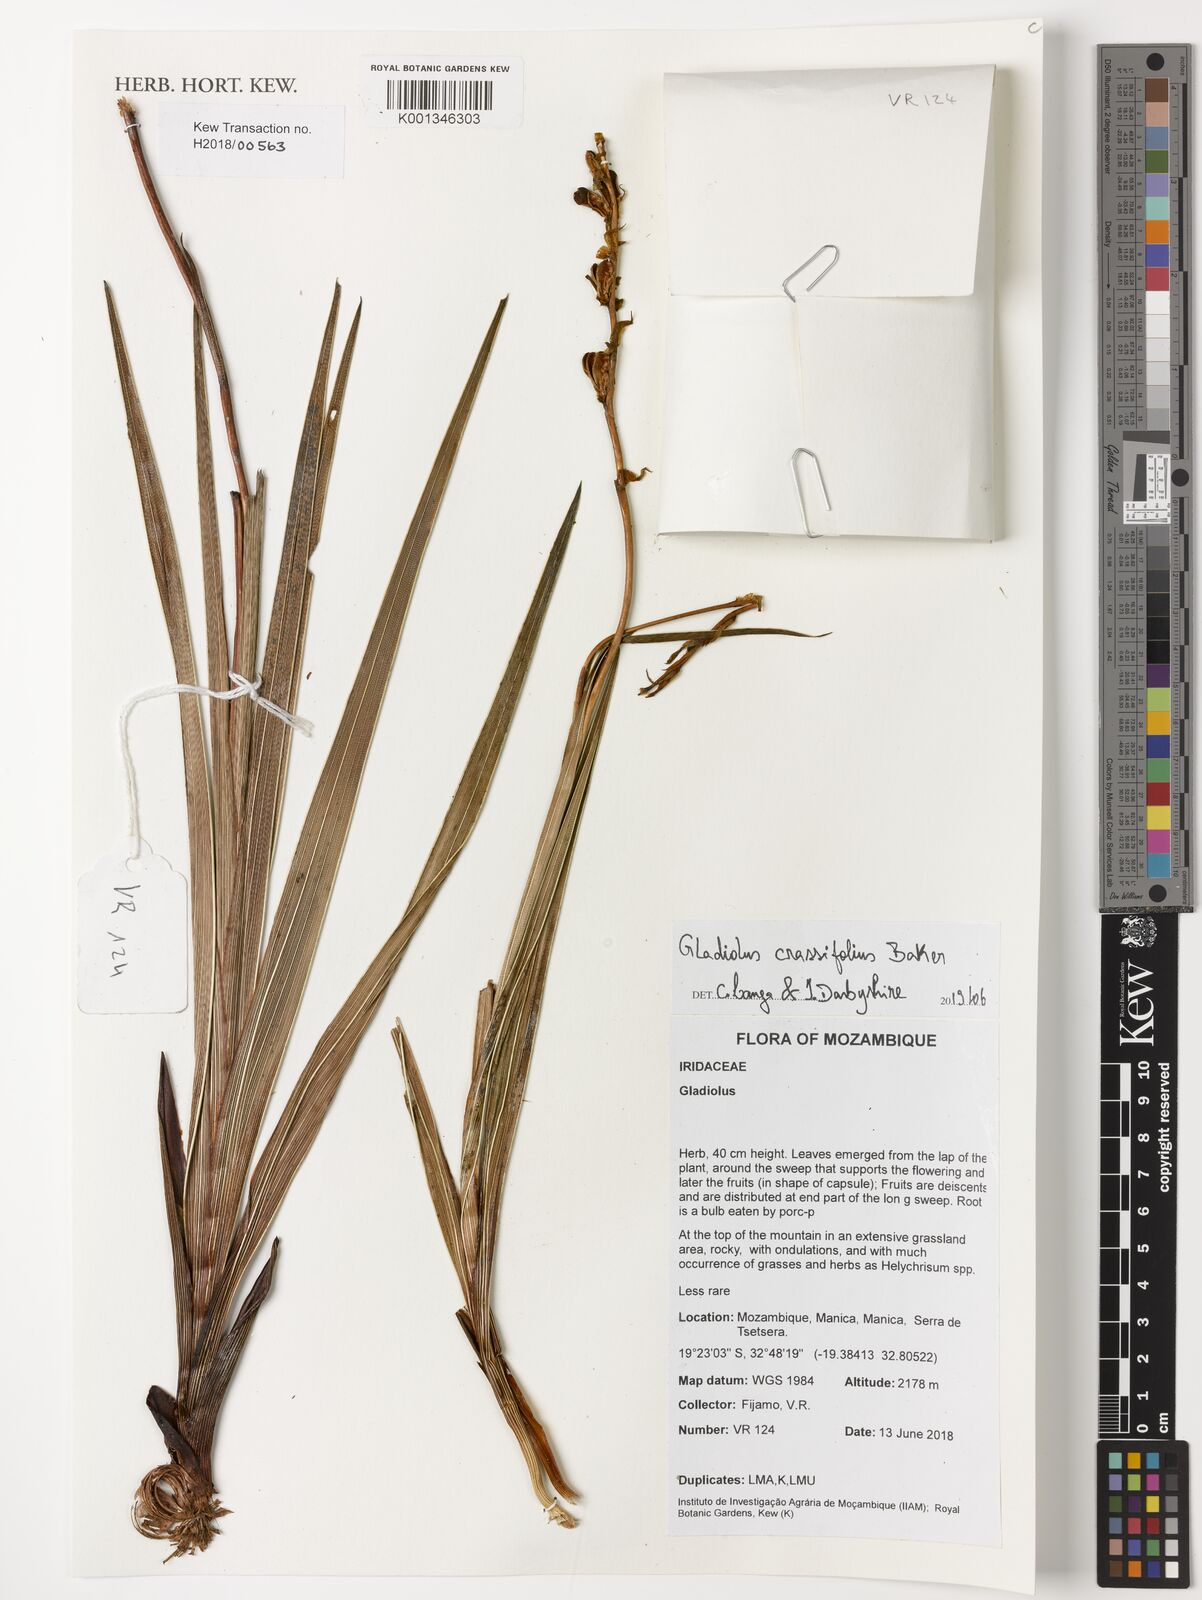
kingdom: Plantae
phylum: Tracheophyta
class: Liliopsida
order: Asparagales
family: Iridaceae
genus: Gladiolus
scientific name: Gladiolus crassifolius
